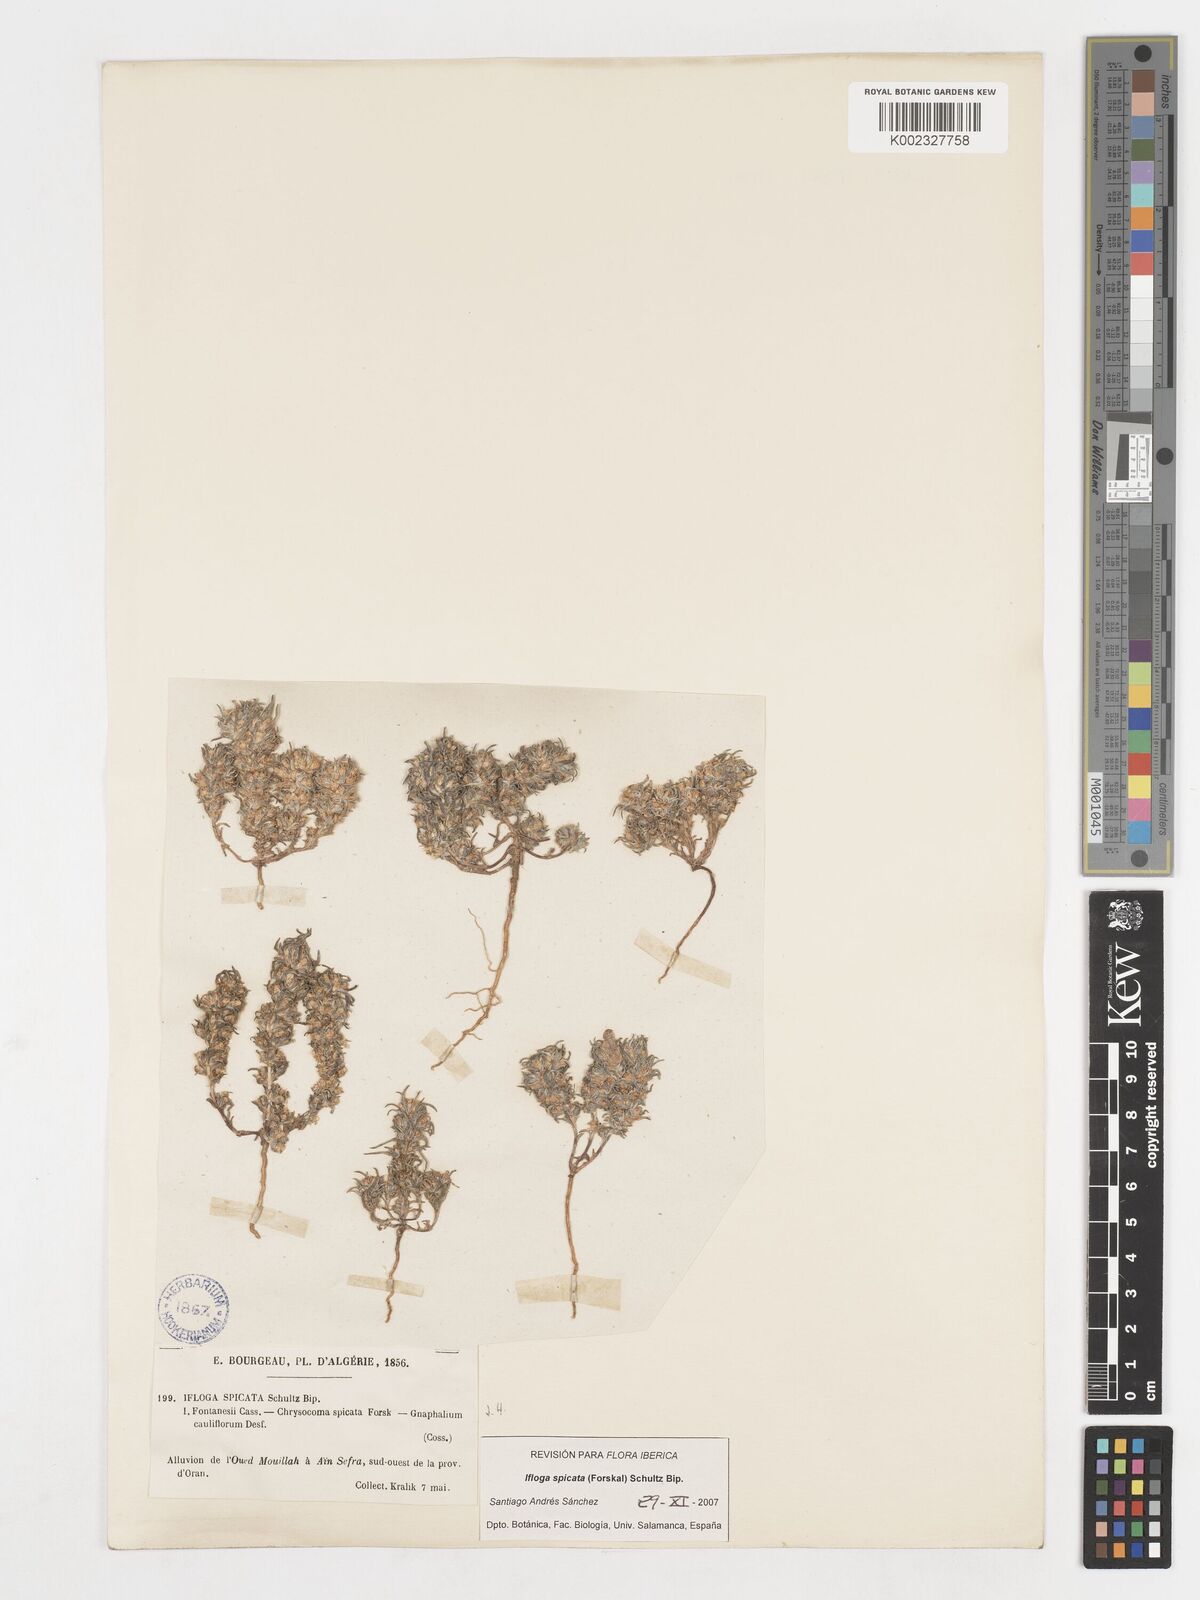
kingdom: Plantae
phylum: Tracheophyta
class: Magnoliopsida
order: Asterales
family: Asteraceae
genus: Ifloga
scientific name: Ifloga spicata
